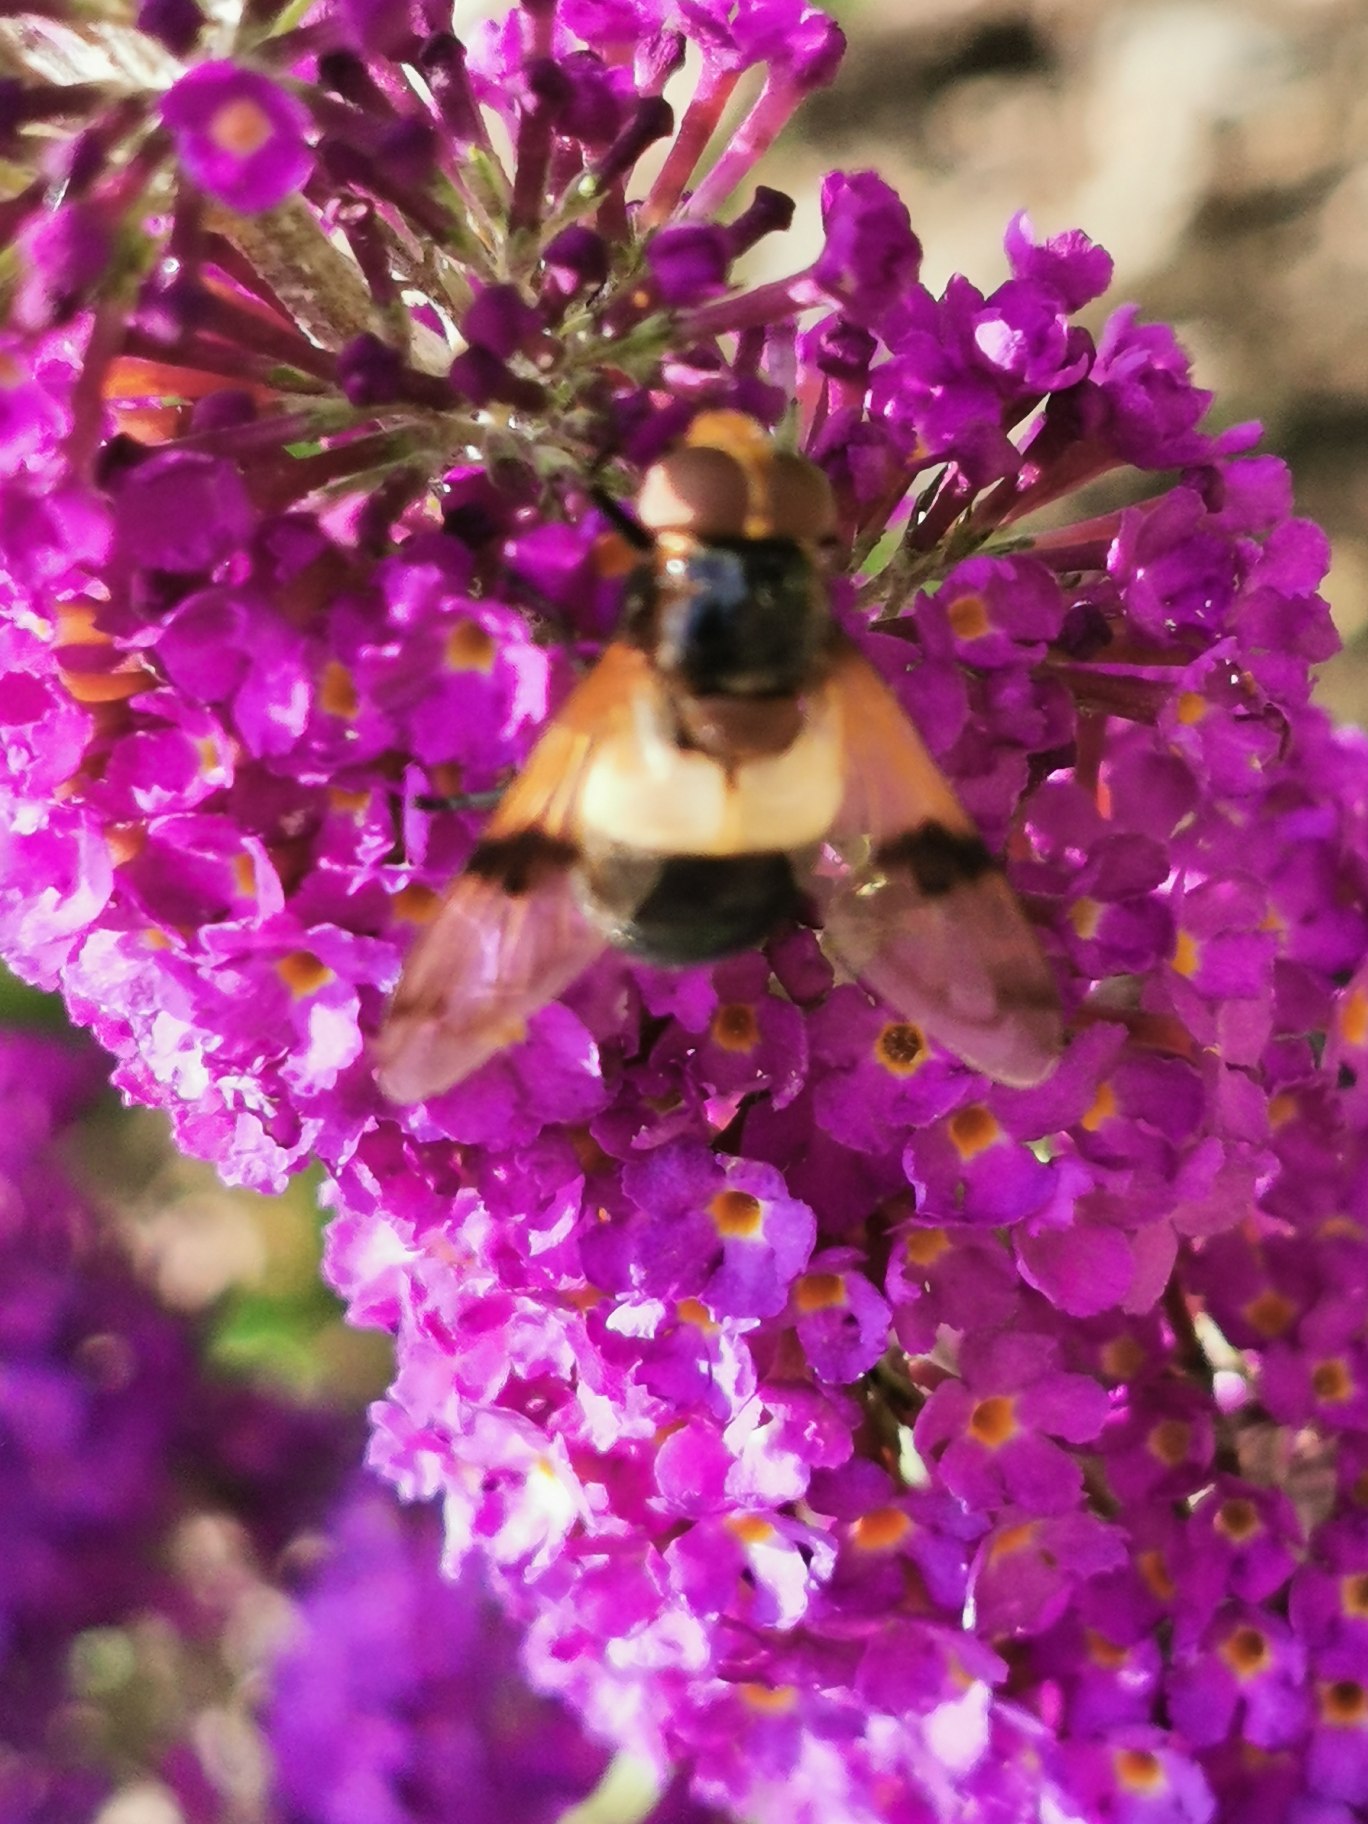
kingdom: Animalia
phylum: Arthropoda
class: Insecta
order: Diptera
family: Syrphidae
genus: Volucella
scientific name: Volucella pellucens
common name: Hvidbåndet humlesvirreflue
